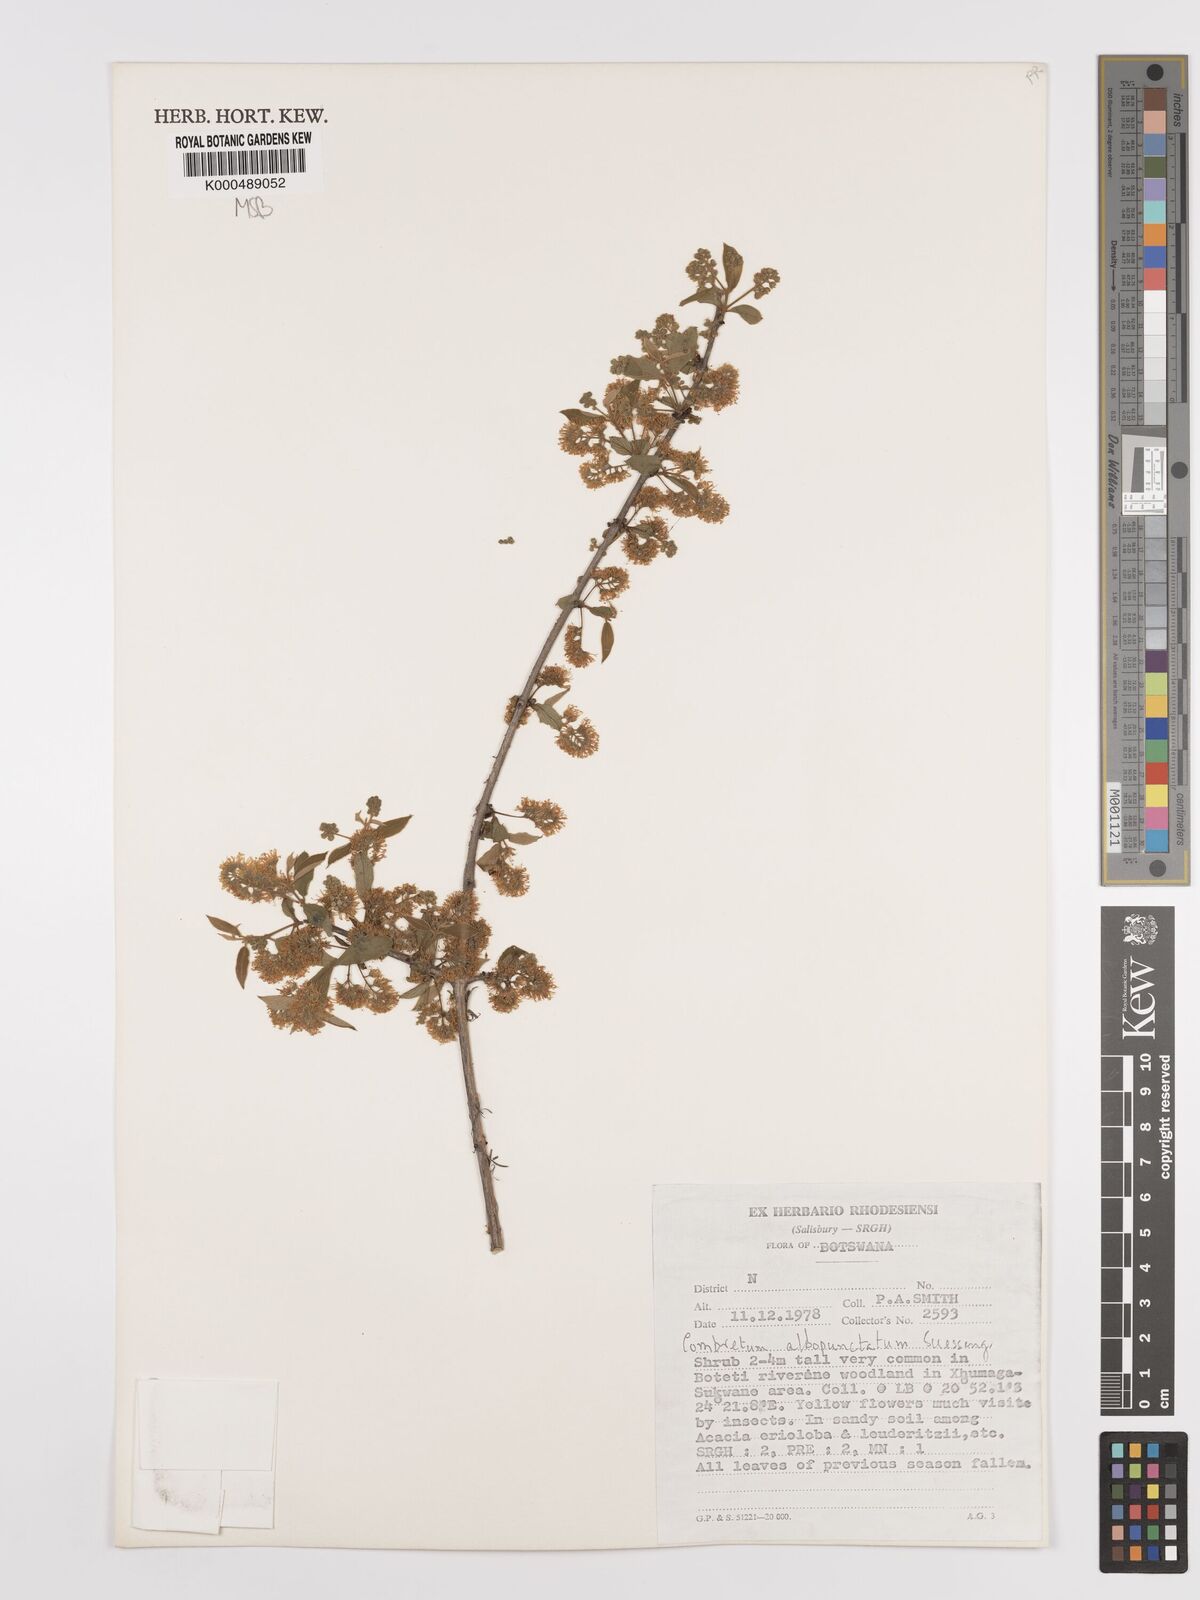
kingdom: Plantae
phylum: Tracheophyta
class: Magnoliopsida
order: Myrtales
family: Combretaceae
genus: Combretum
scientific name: Combretum albopunctatum
